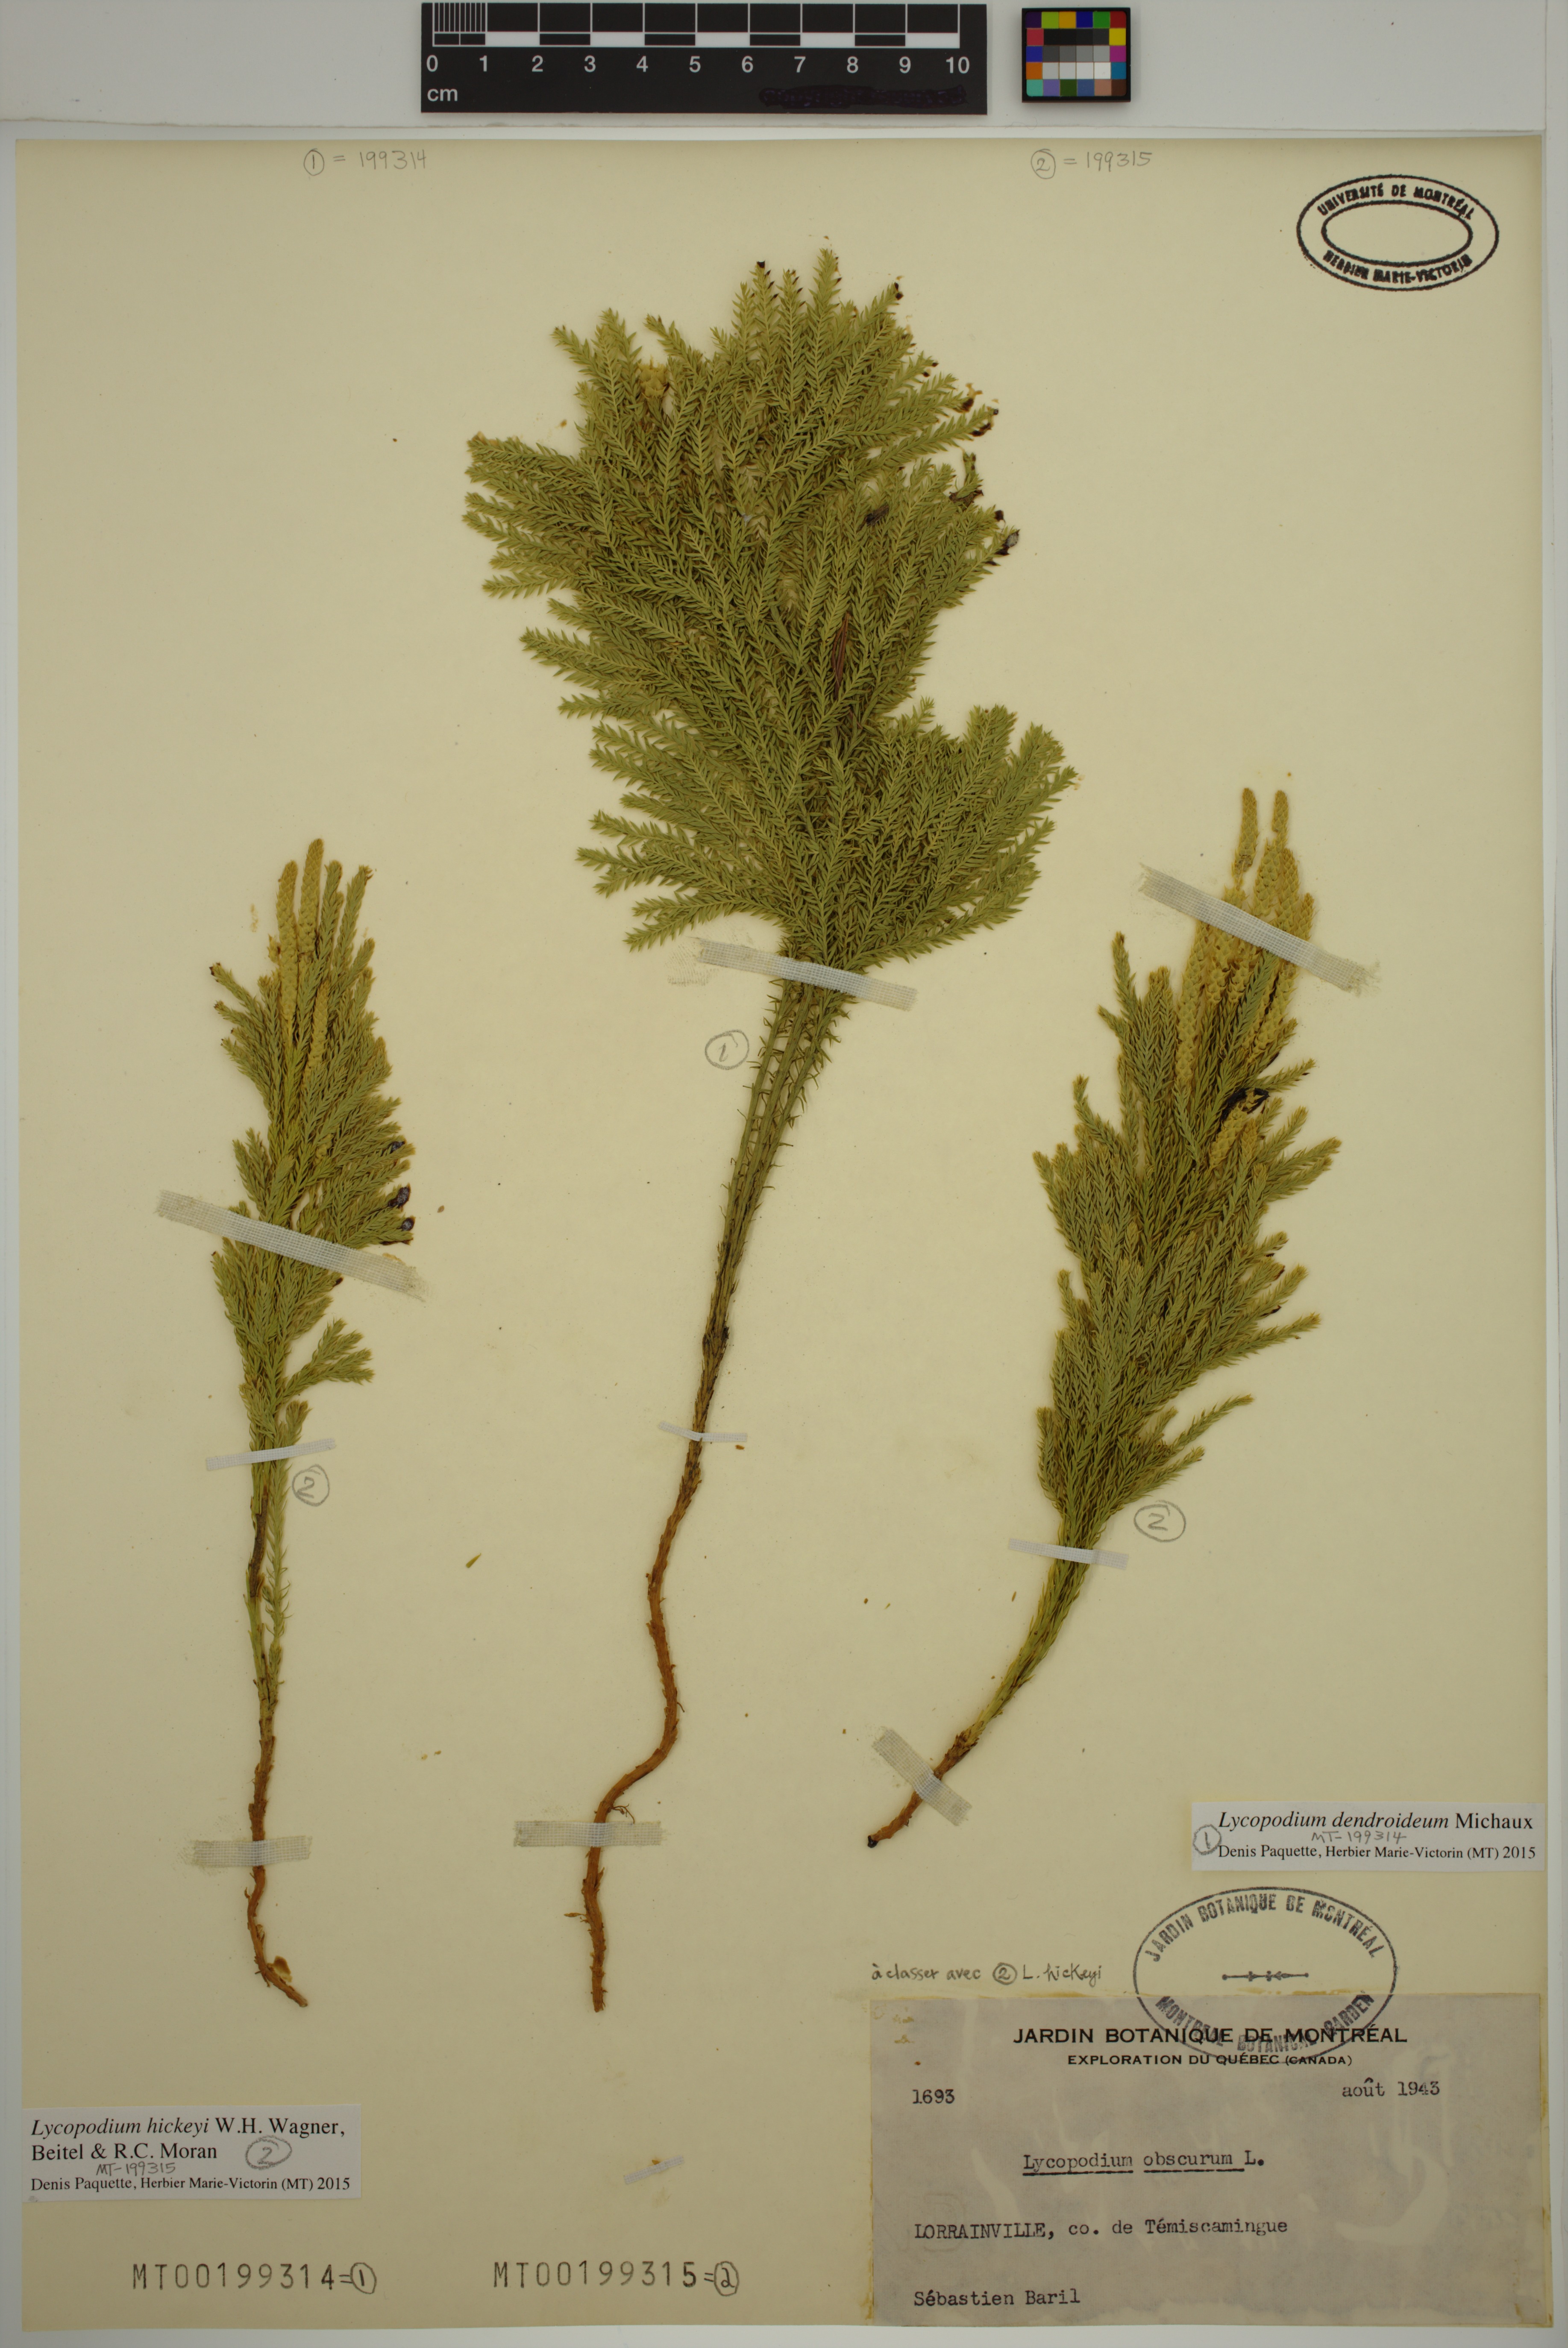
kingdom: Plantae
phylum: Tracheophyta
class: Lycopodiopsida
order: Lycopodiales
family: Lycopodiaceae
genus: Dendrolycopodium
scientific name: Dendrolycopodium hickeyi
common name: Hickey's clubmoss
